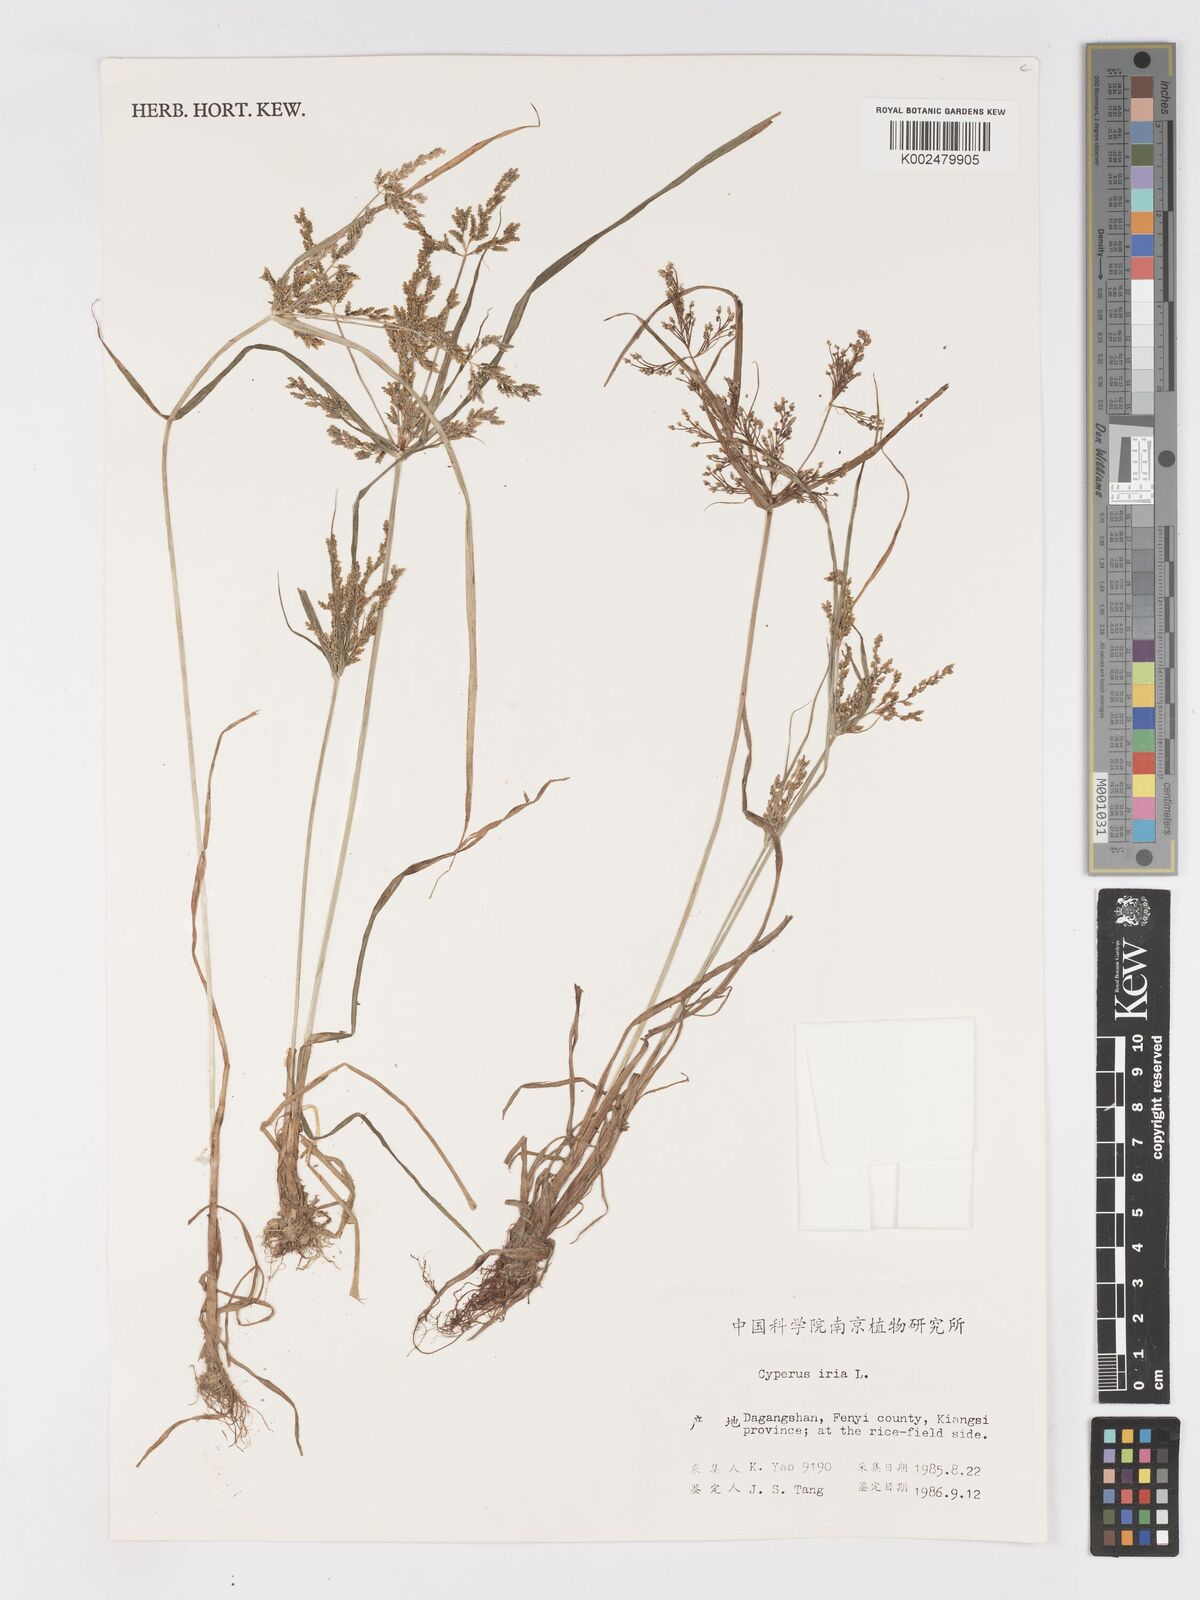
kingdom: Plantae
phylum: Tracheophyta
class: Liliopsida
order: Poales
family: Cyperaceae
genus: Cyperus
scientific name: Cyperus iria
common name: Ricefield flatsedge
